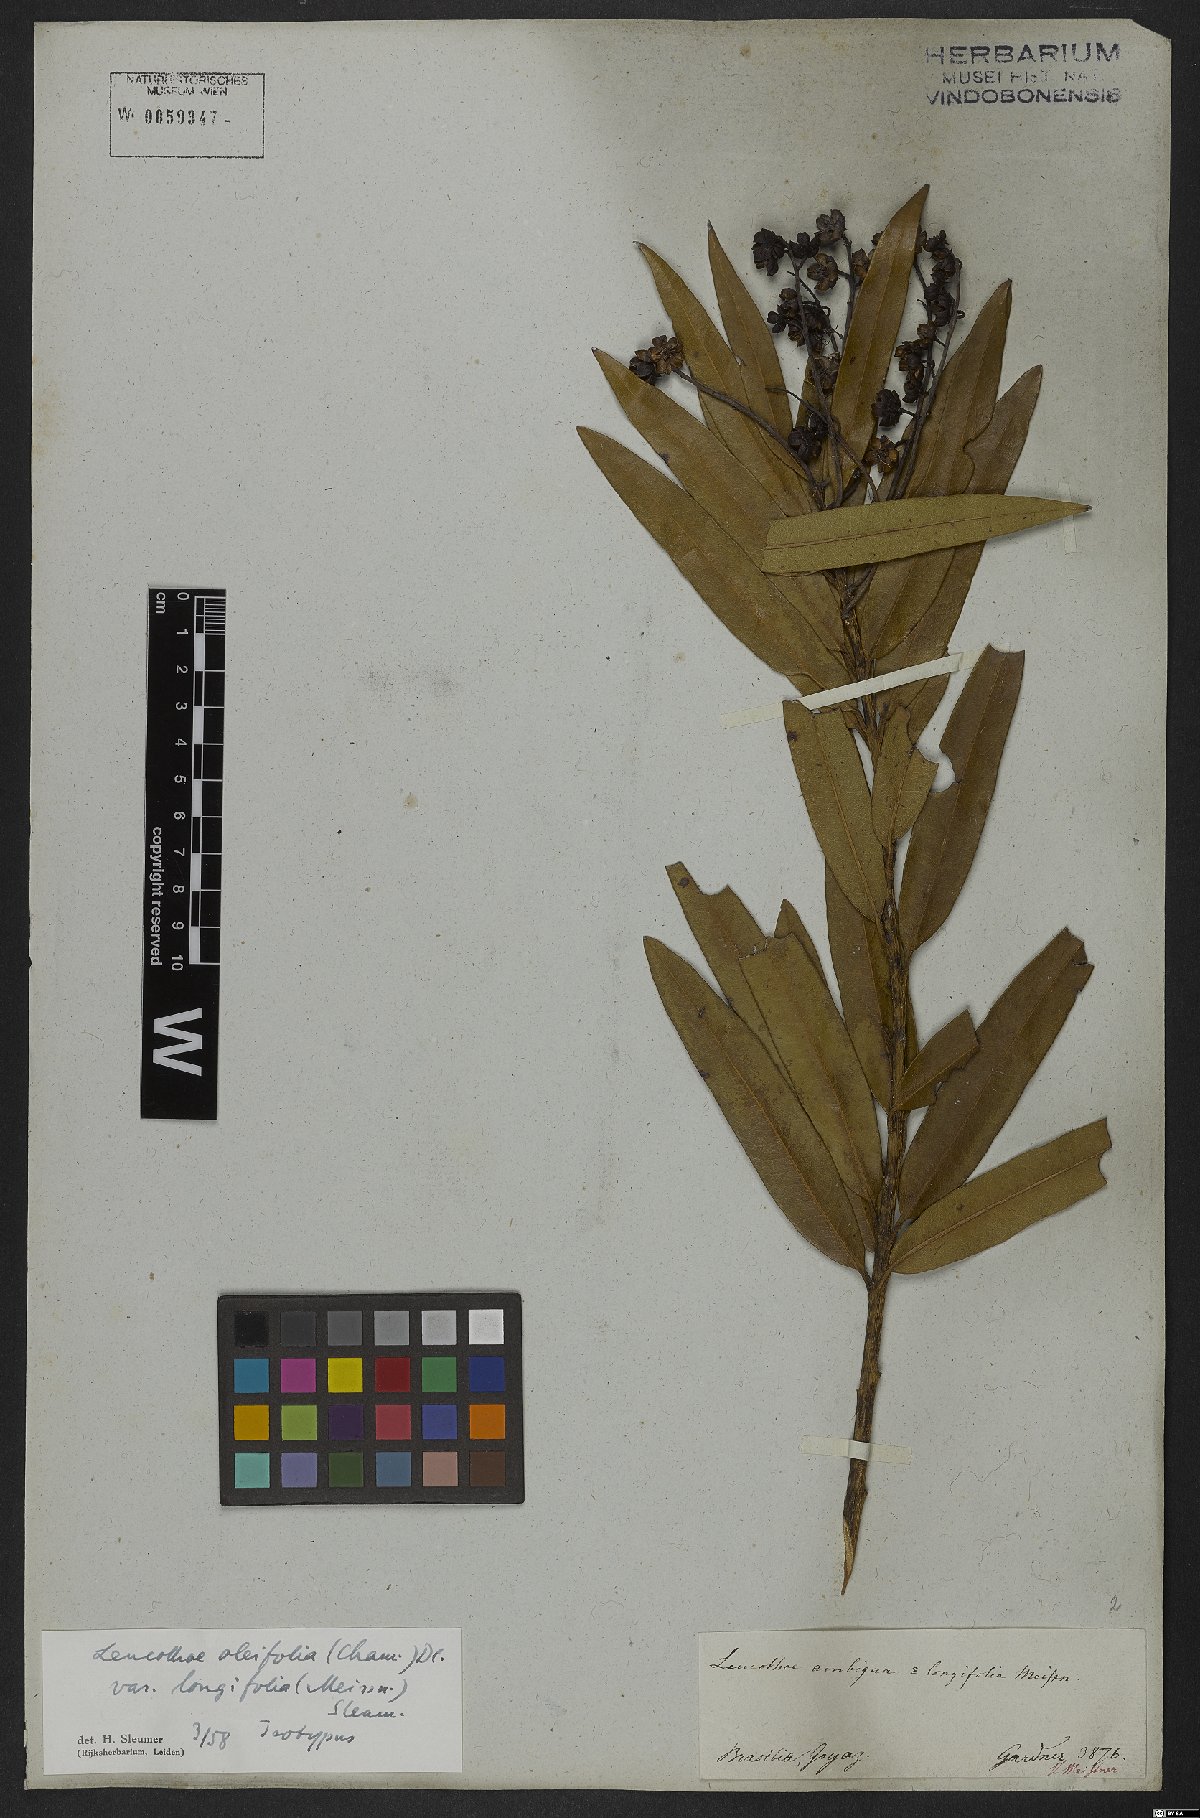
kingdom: Plantae
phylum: Tracheophyta
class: Magnoliopsida
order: Ericales
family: Ericaceae
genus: Agarista
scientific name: Agarista oleifolia
